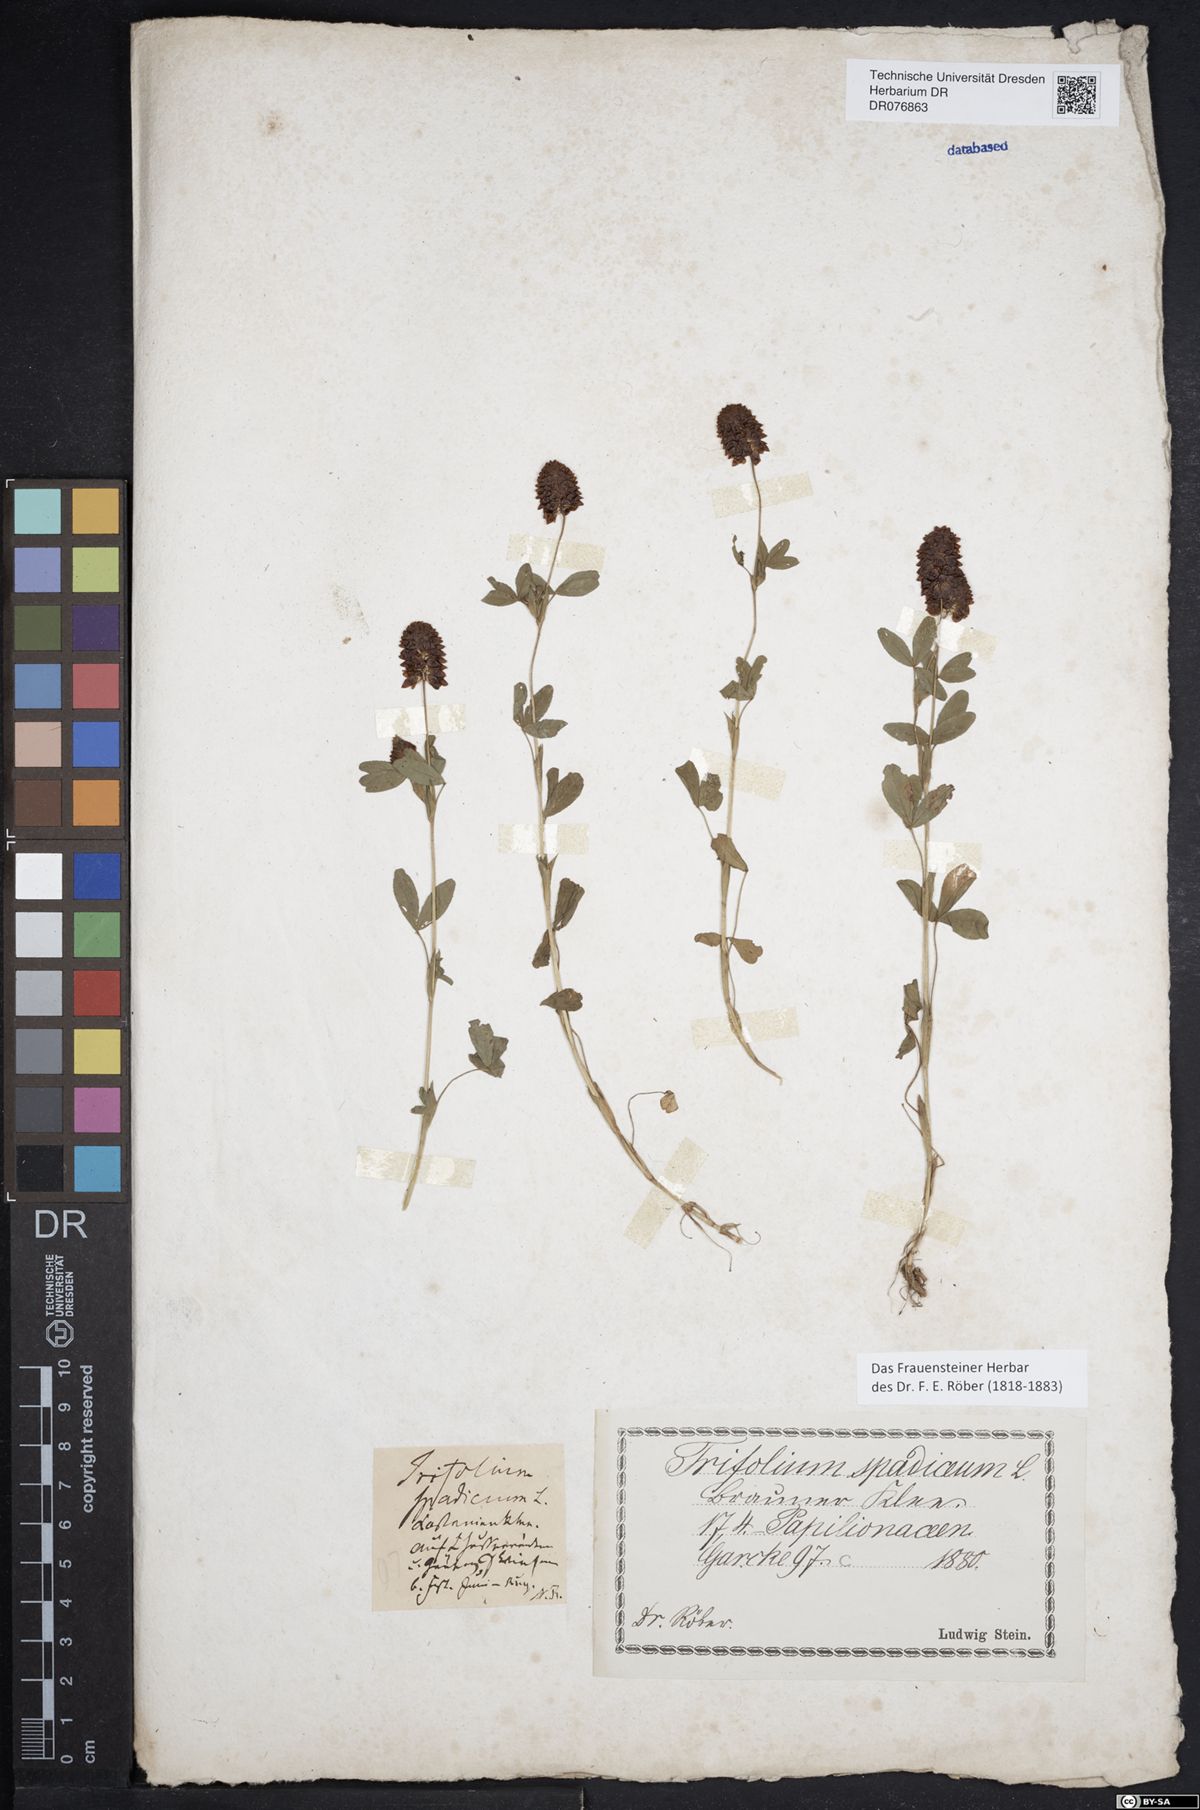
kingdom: Plantae
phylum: Tracheophyta
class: Magnoliopsida
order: Fabales
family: Fabaceae
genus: Trifolium
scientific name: Trifolium spadiceum
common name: Brown moor clover
